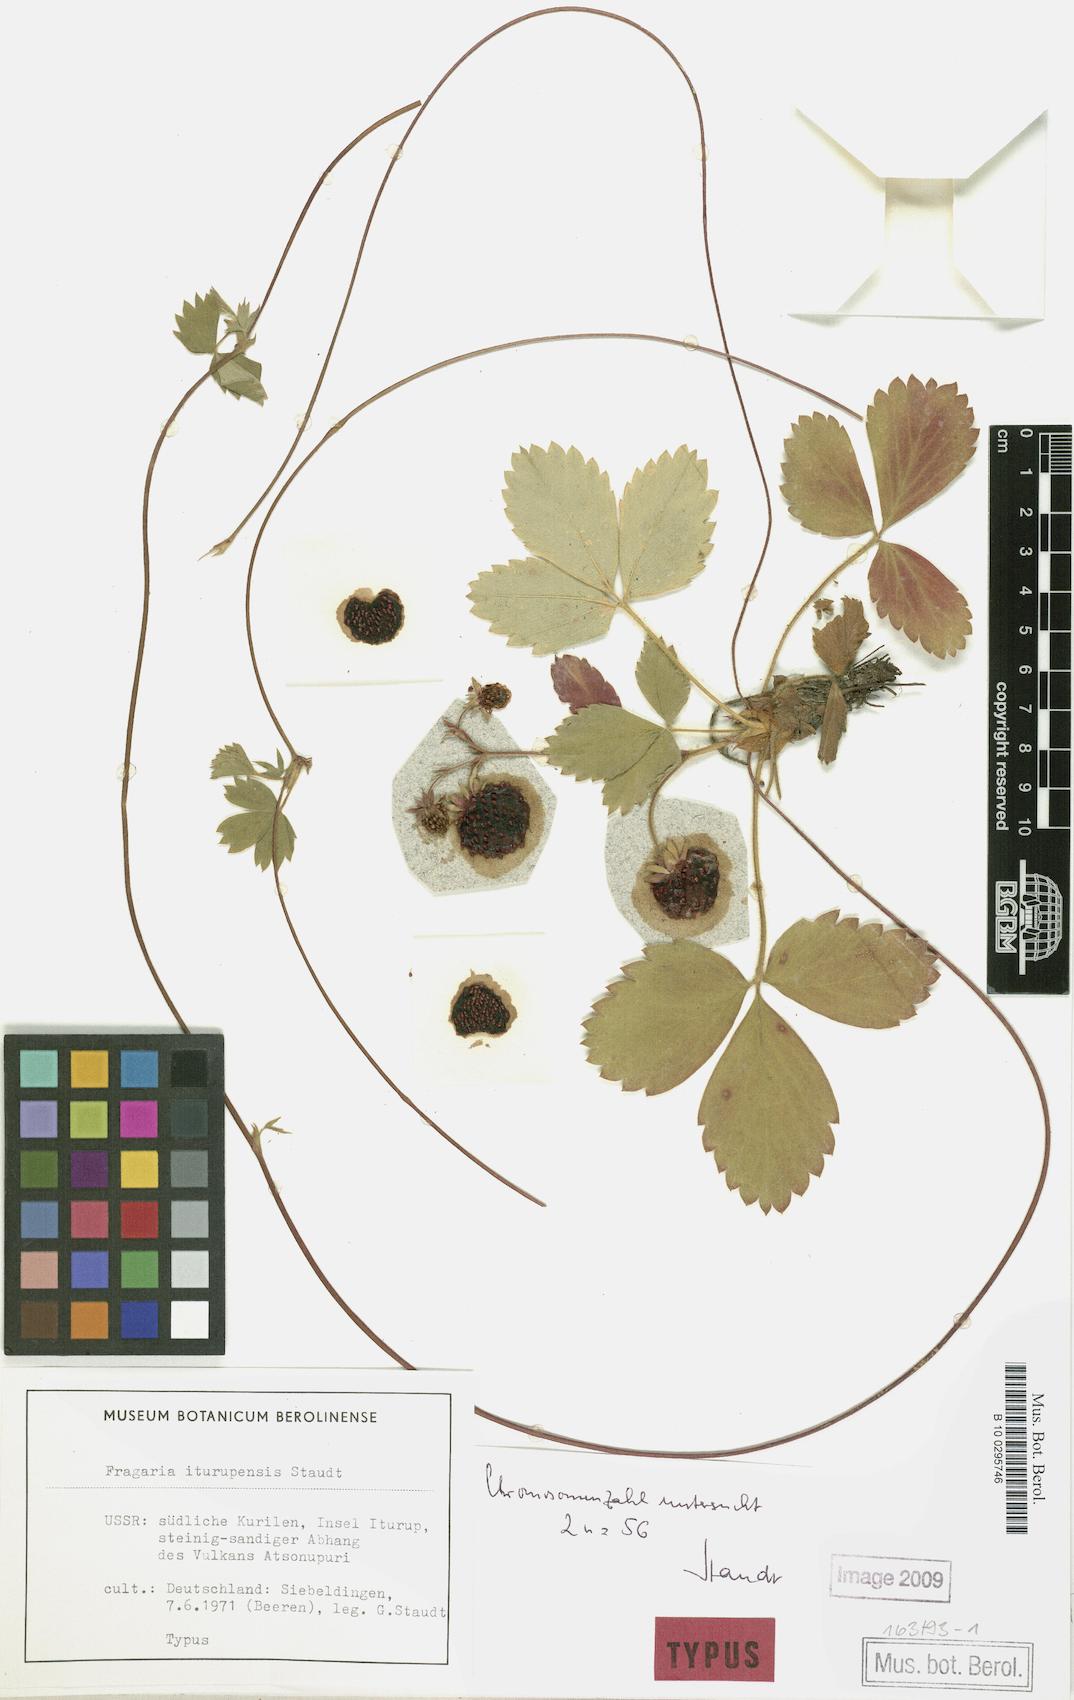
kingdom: Plantae
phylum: Tracheophyta
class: Magnoliopsida
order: Rosales
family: Rosaceae
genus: Fragaria
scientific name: Fragaria iturupensis
